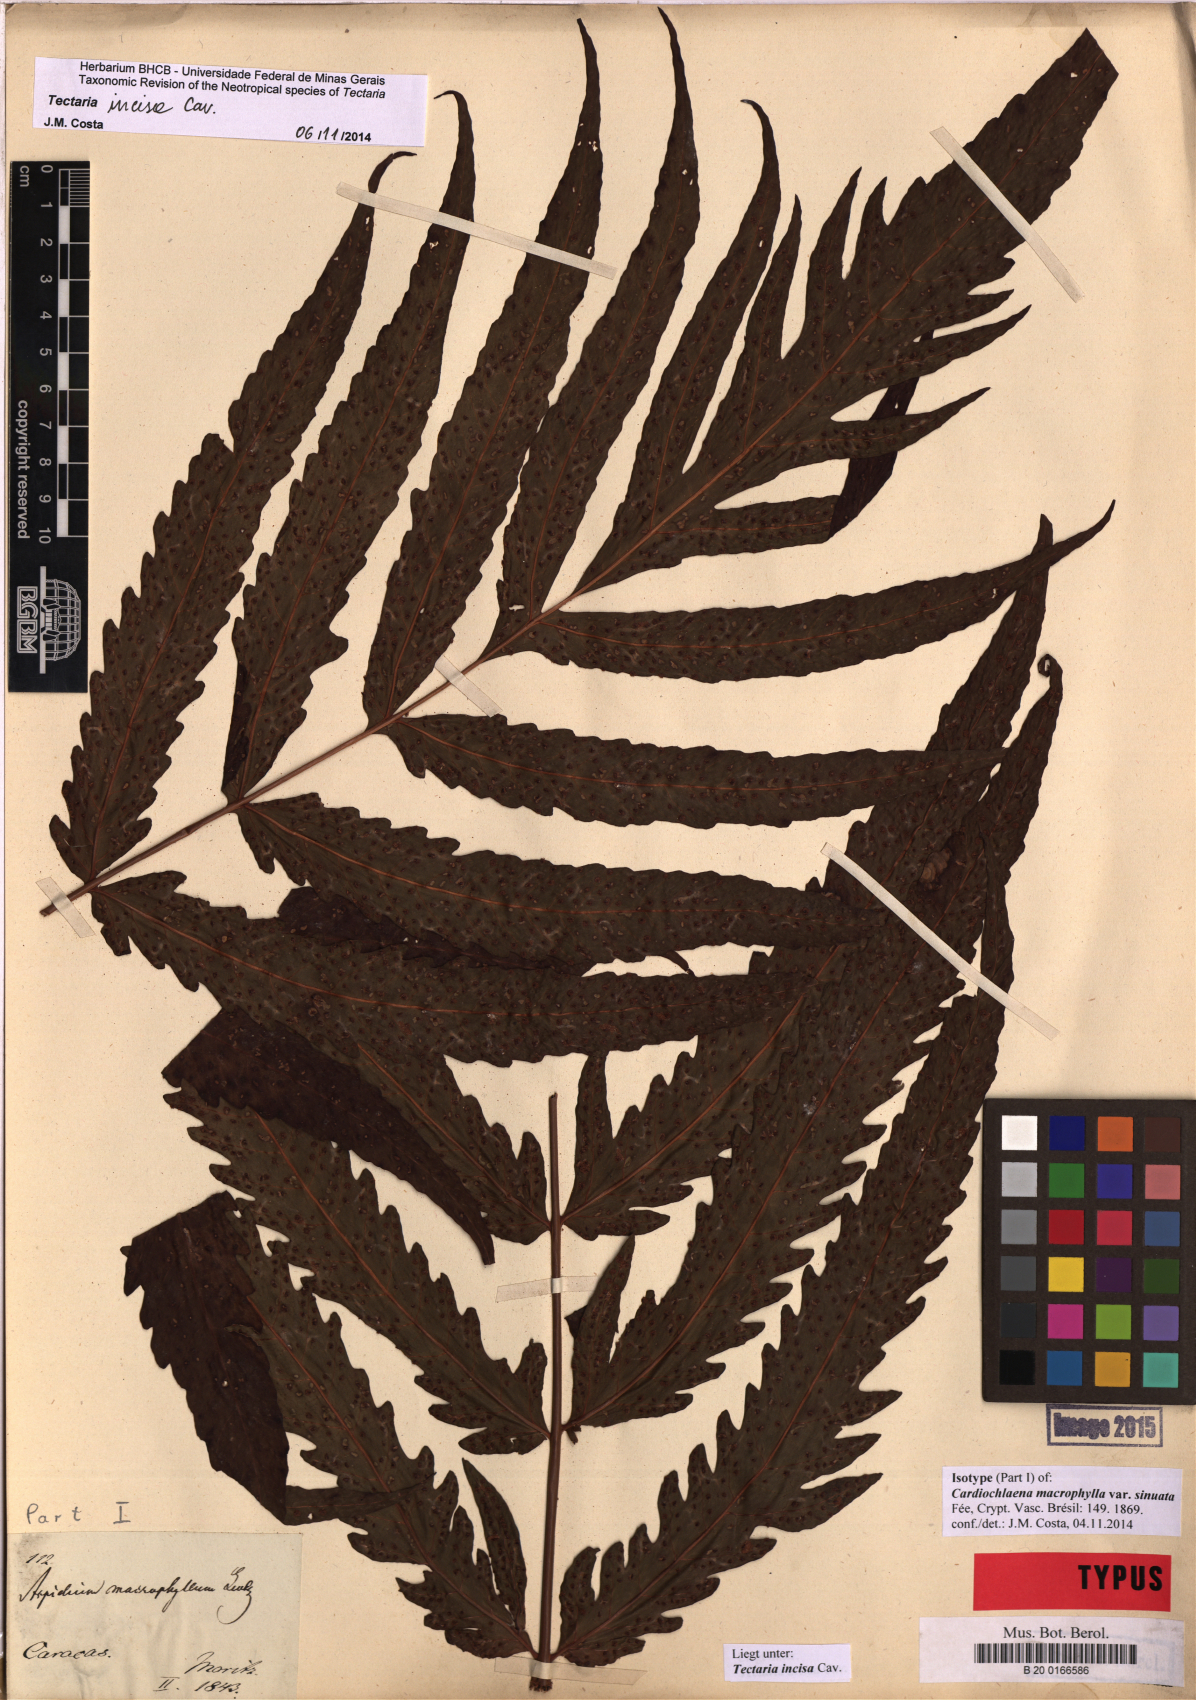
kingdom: Plantae
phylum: Tracheophyta
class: Polypodiopsida
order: Polypodiales
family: Tectariaceae
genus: Tectaria
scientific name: Tectaria incisa
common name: Incised halberd fern
